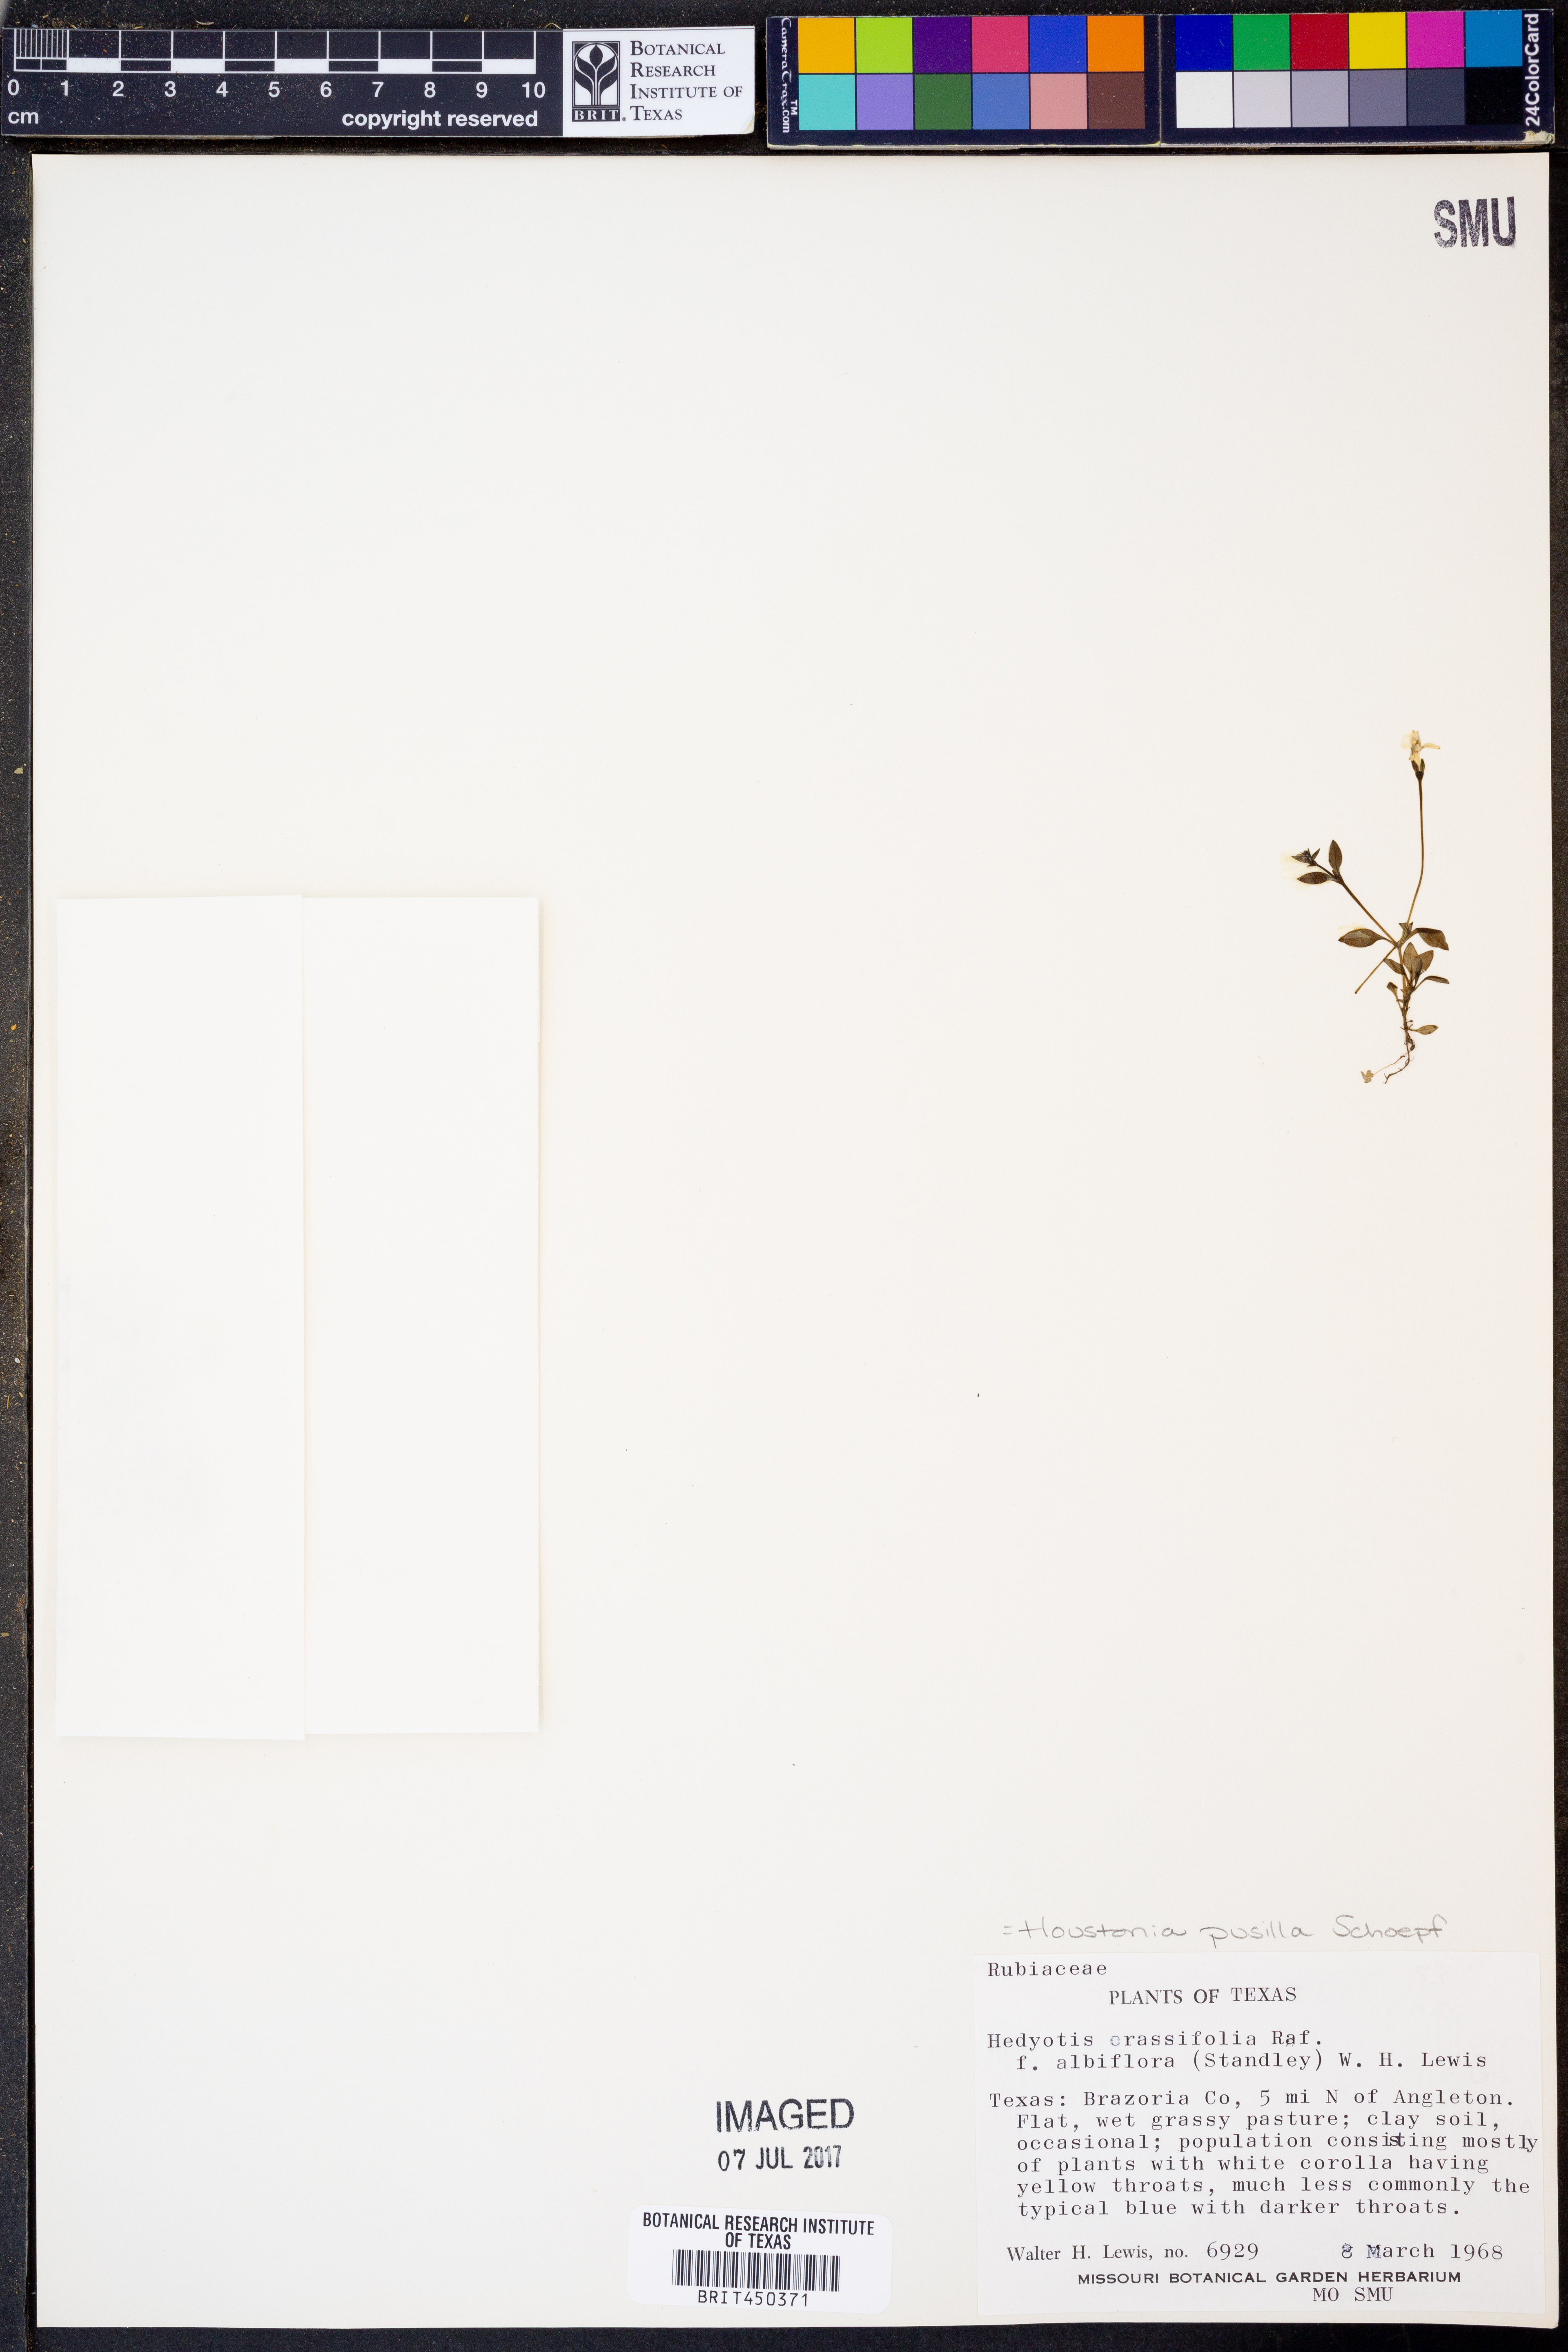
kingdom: Plantae
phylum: Tracheophyta
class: Magnoliopsida
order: Gentianales
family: Rubiaceae
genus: Houstonia
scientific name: Houstonia pusilla
